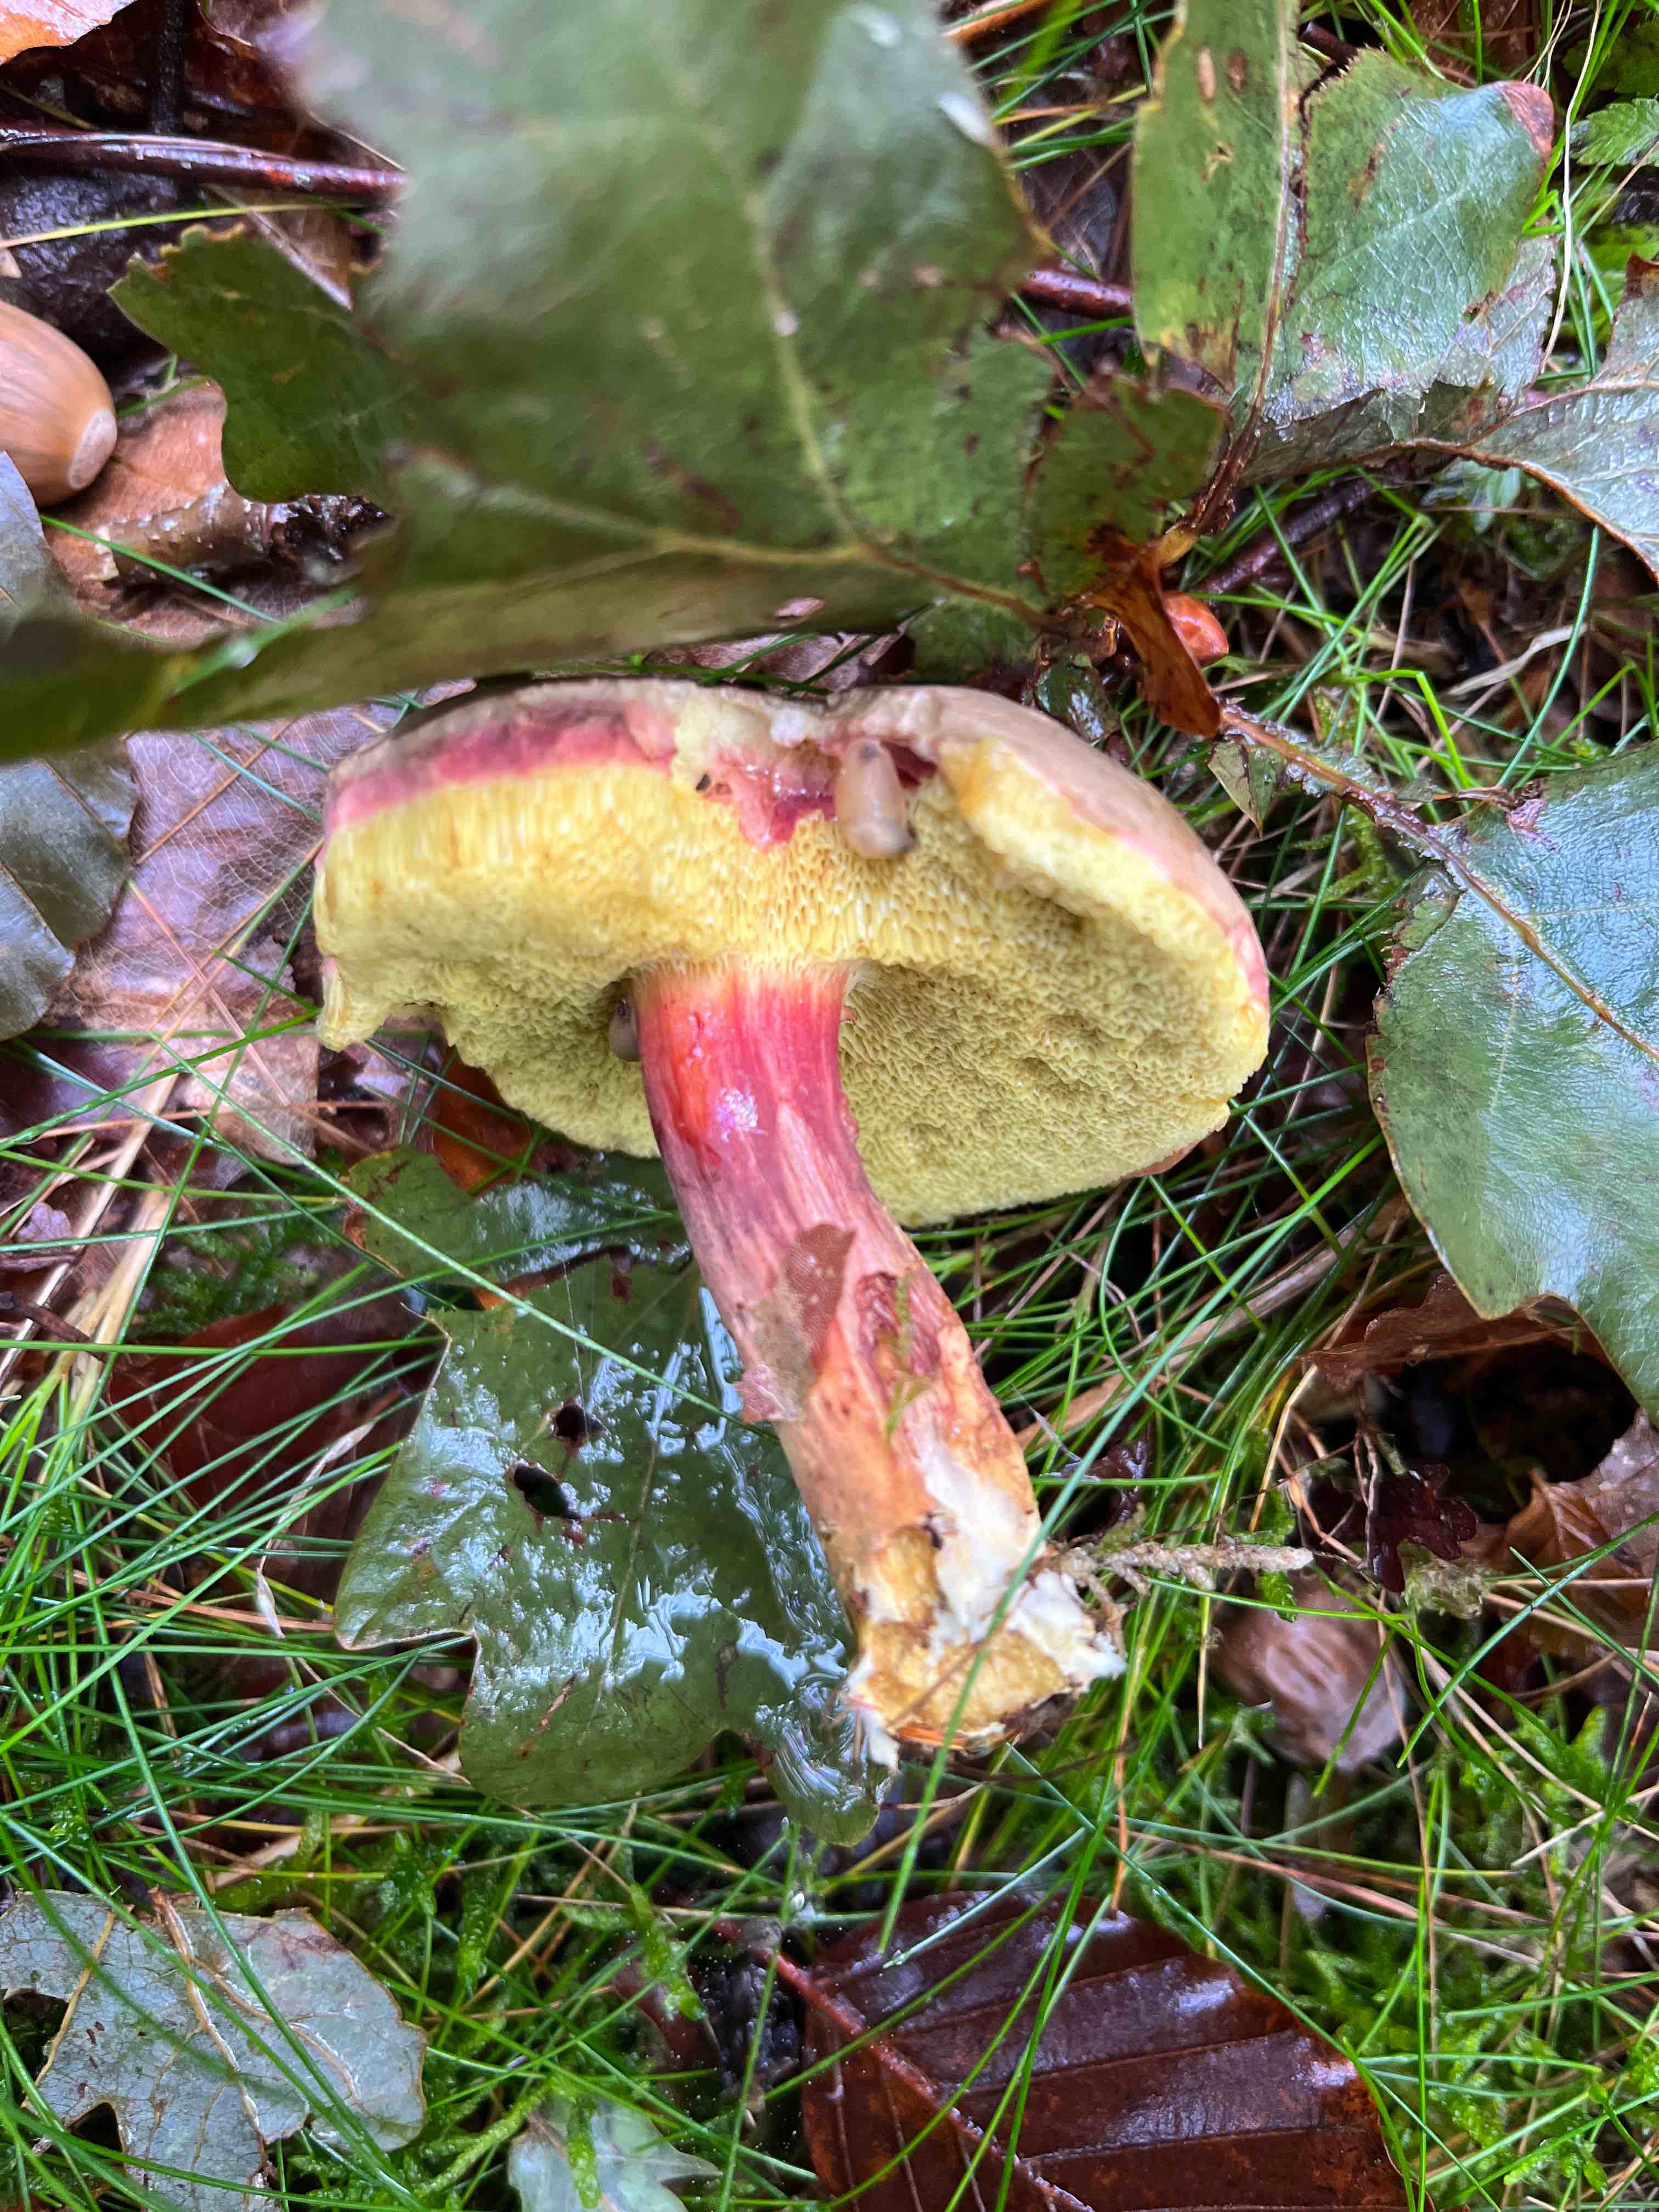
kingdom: Fungi
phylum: Basidiomycota
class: Agaricomycetes
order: Boletales
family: Boletaceae
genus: Xerocomellus
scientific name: Xerocomellus pruinatus
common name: dugget rørhat
